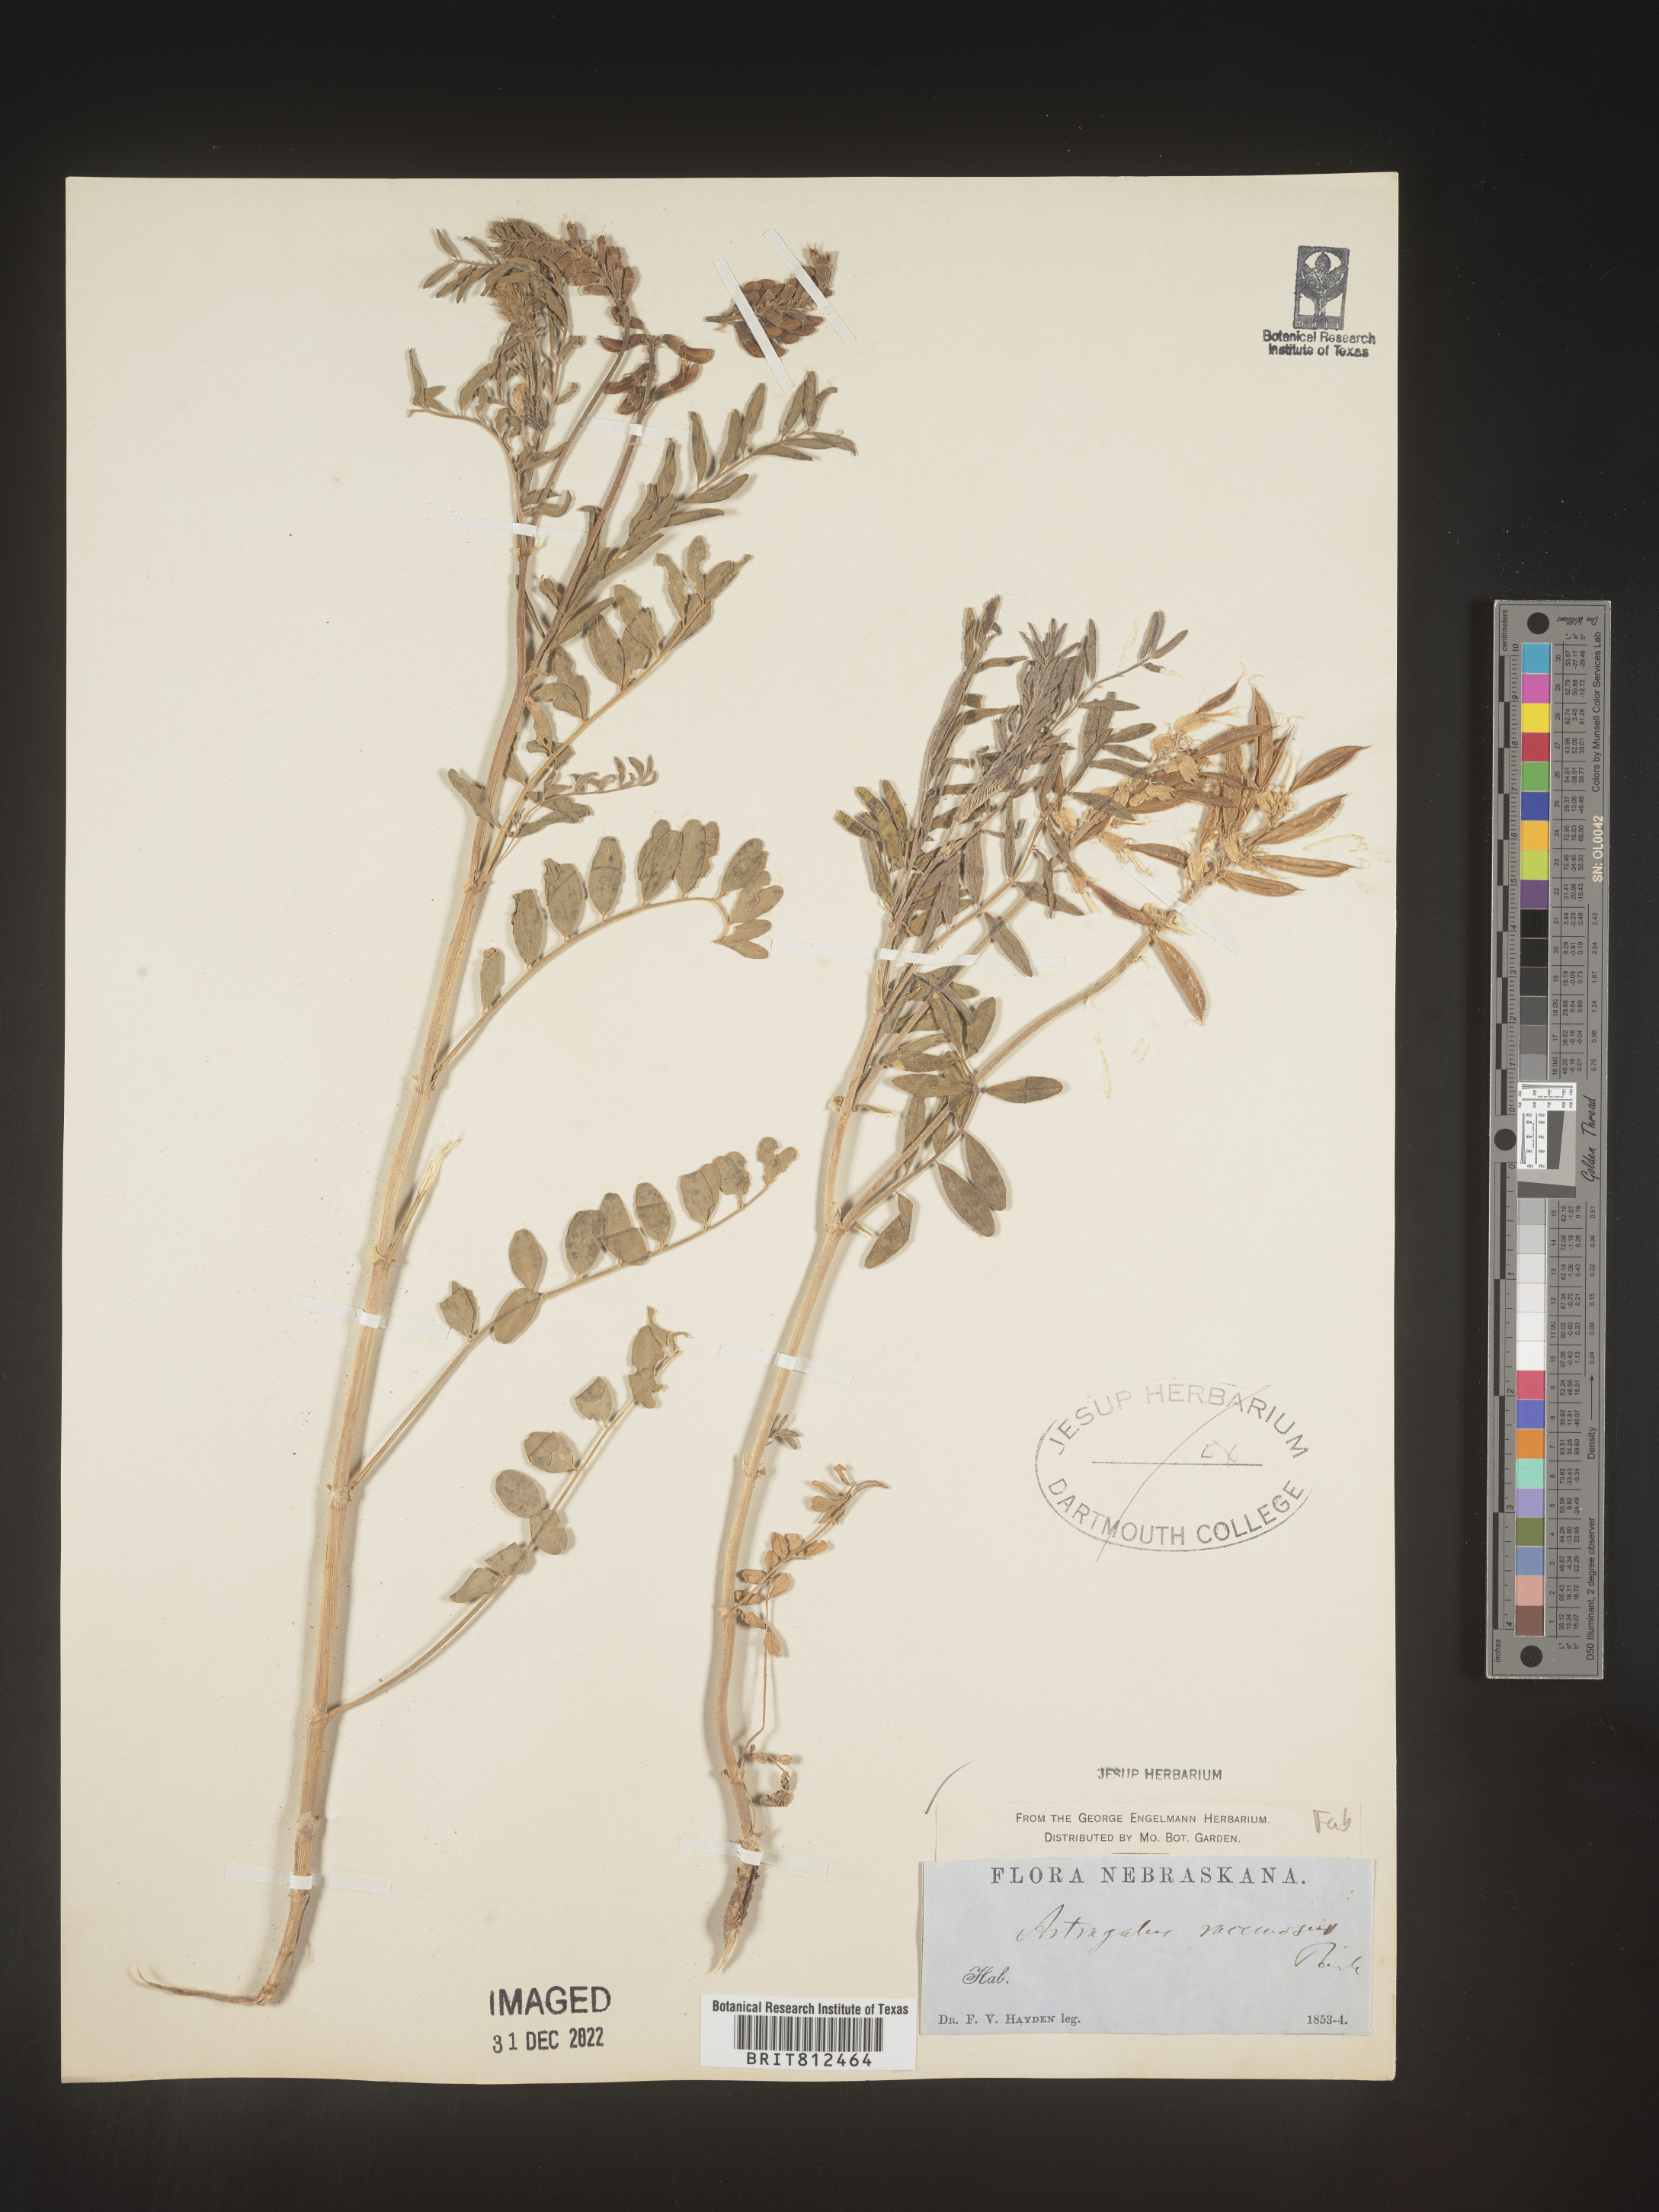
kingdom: Plantae
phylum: Tracheophyta
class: Magnoliopsida
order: Fabales
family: Fabaceae
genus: Astragalus
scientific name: Astragalus racemosus
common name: Alkali milk-vetch
